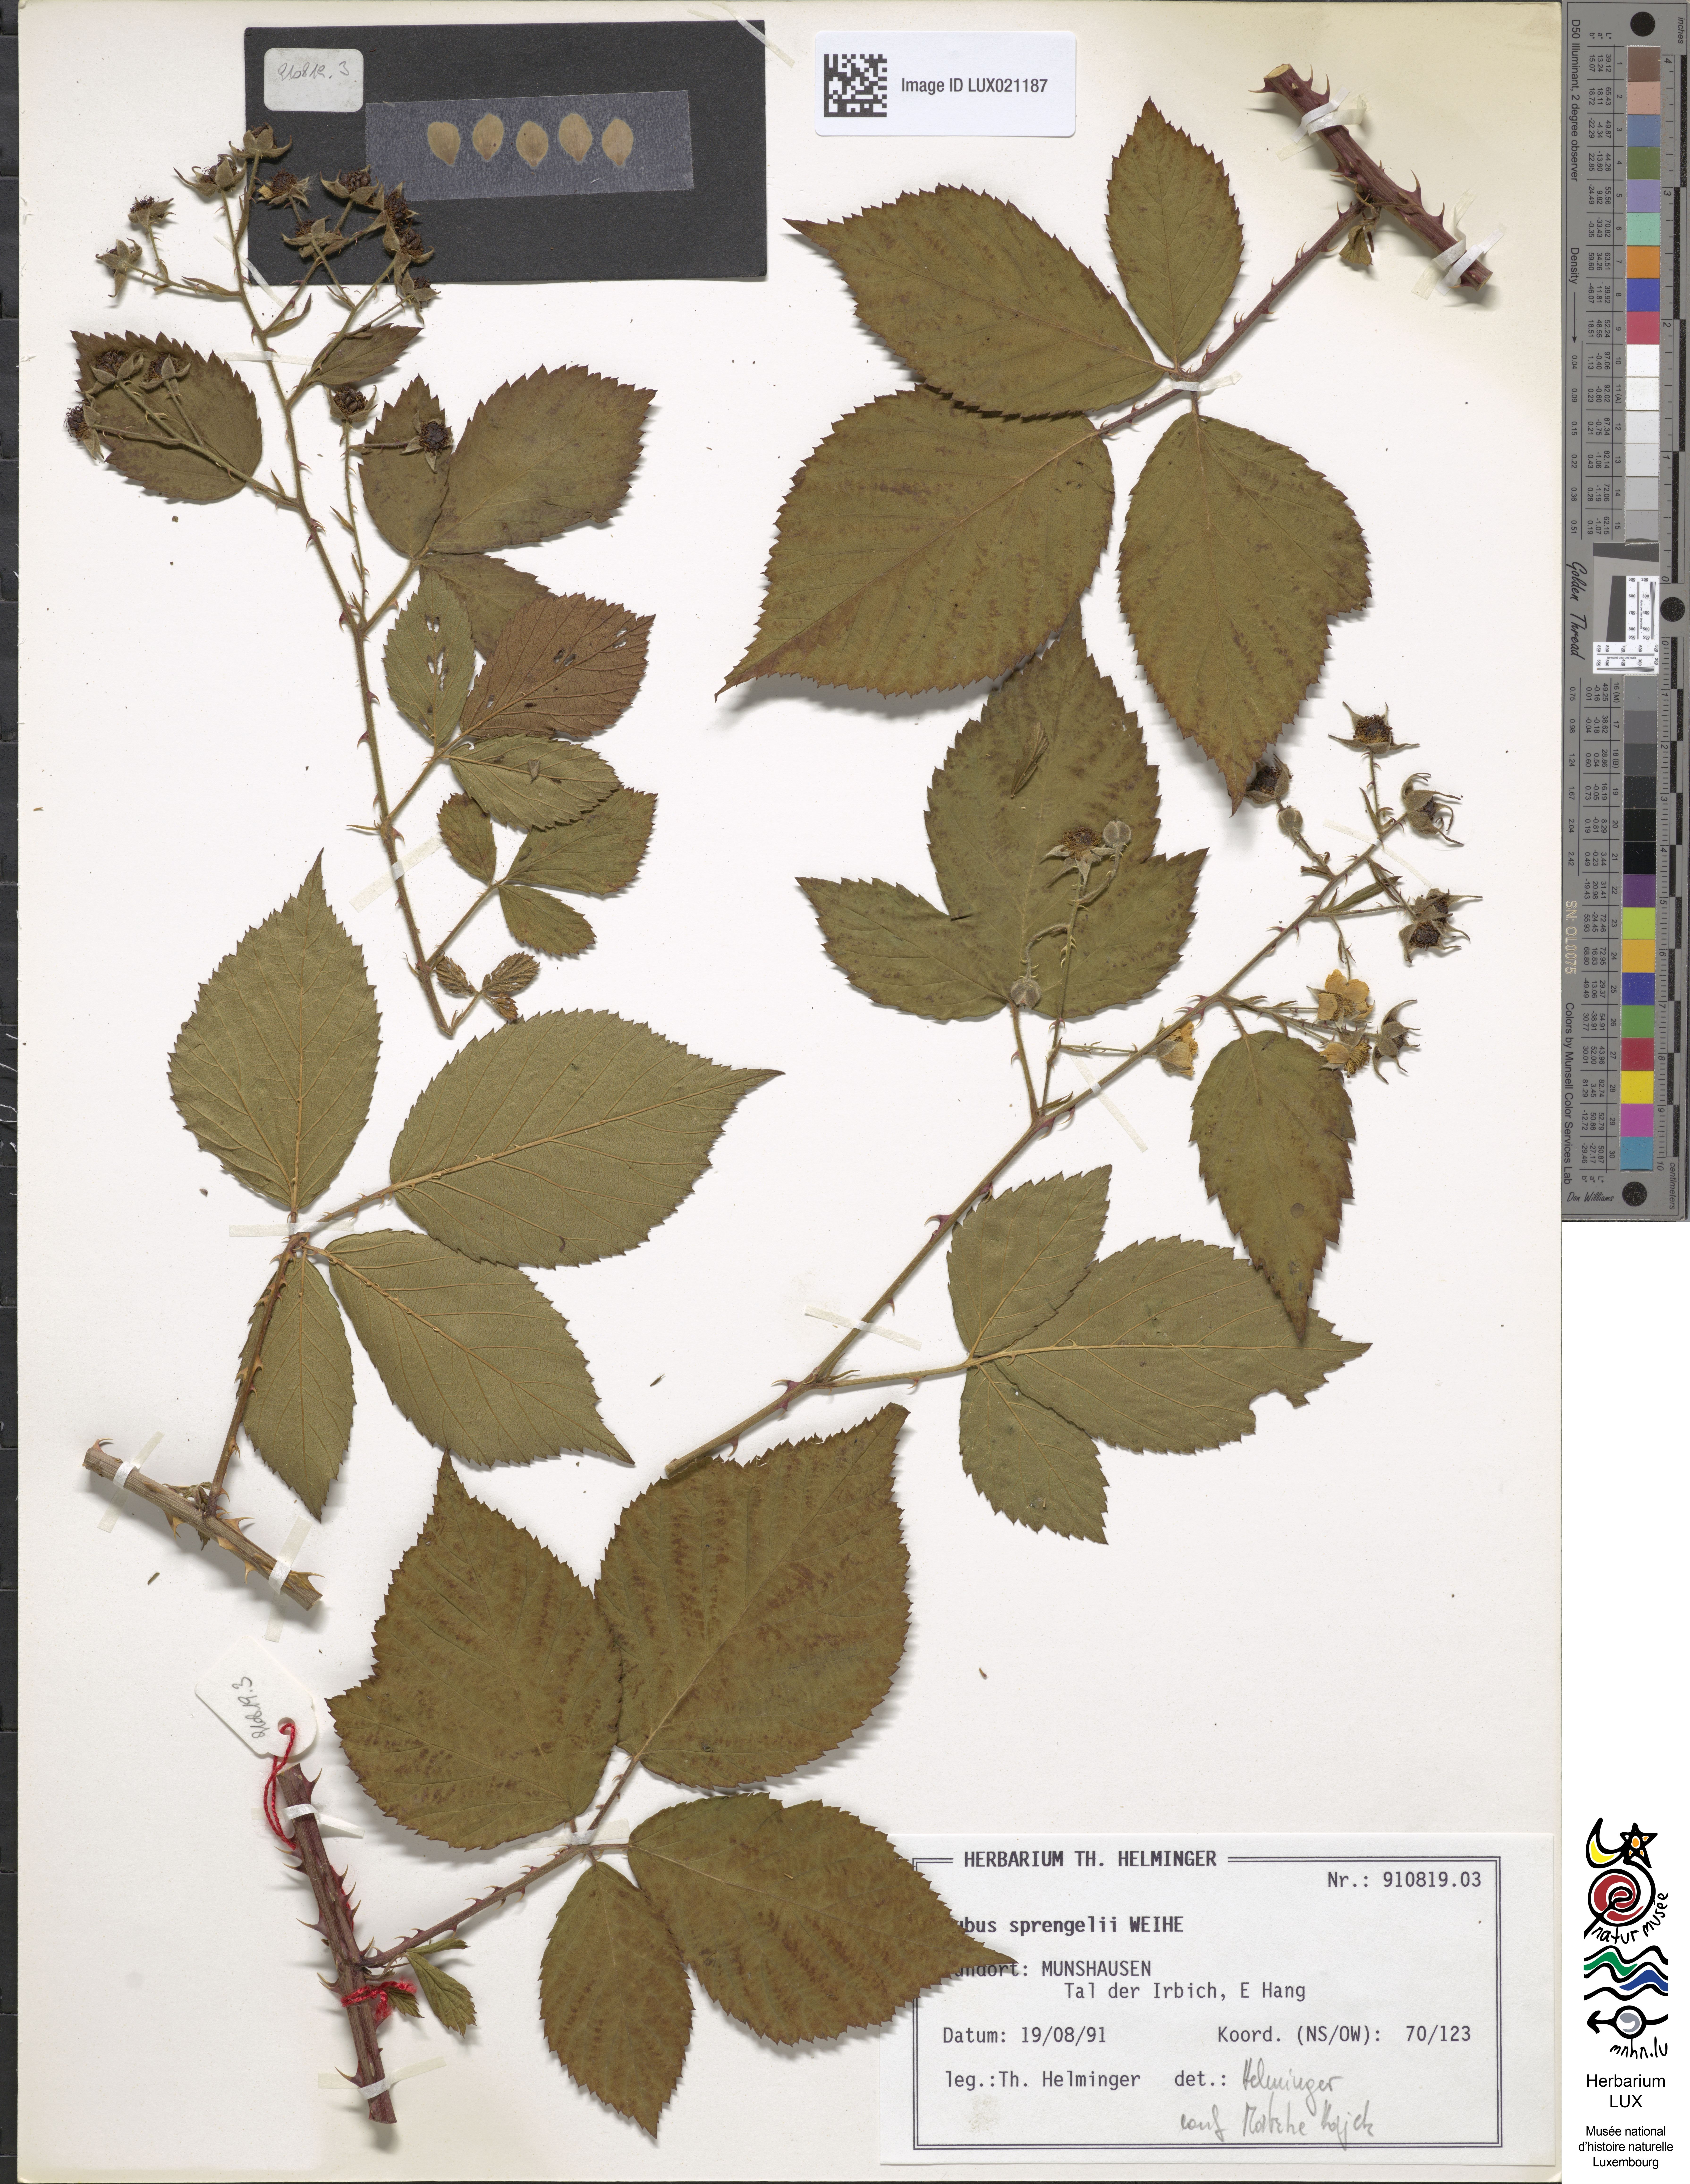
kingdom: Plantae
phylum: Tracheophyta
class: Magnoliopsida
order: Rosales
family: Rosaceae
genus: Rubus
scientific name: Rubus sprengelii
